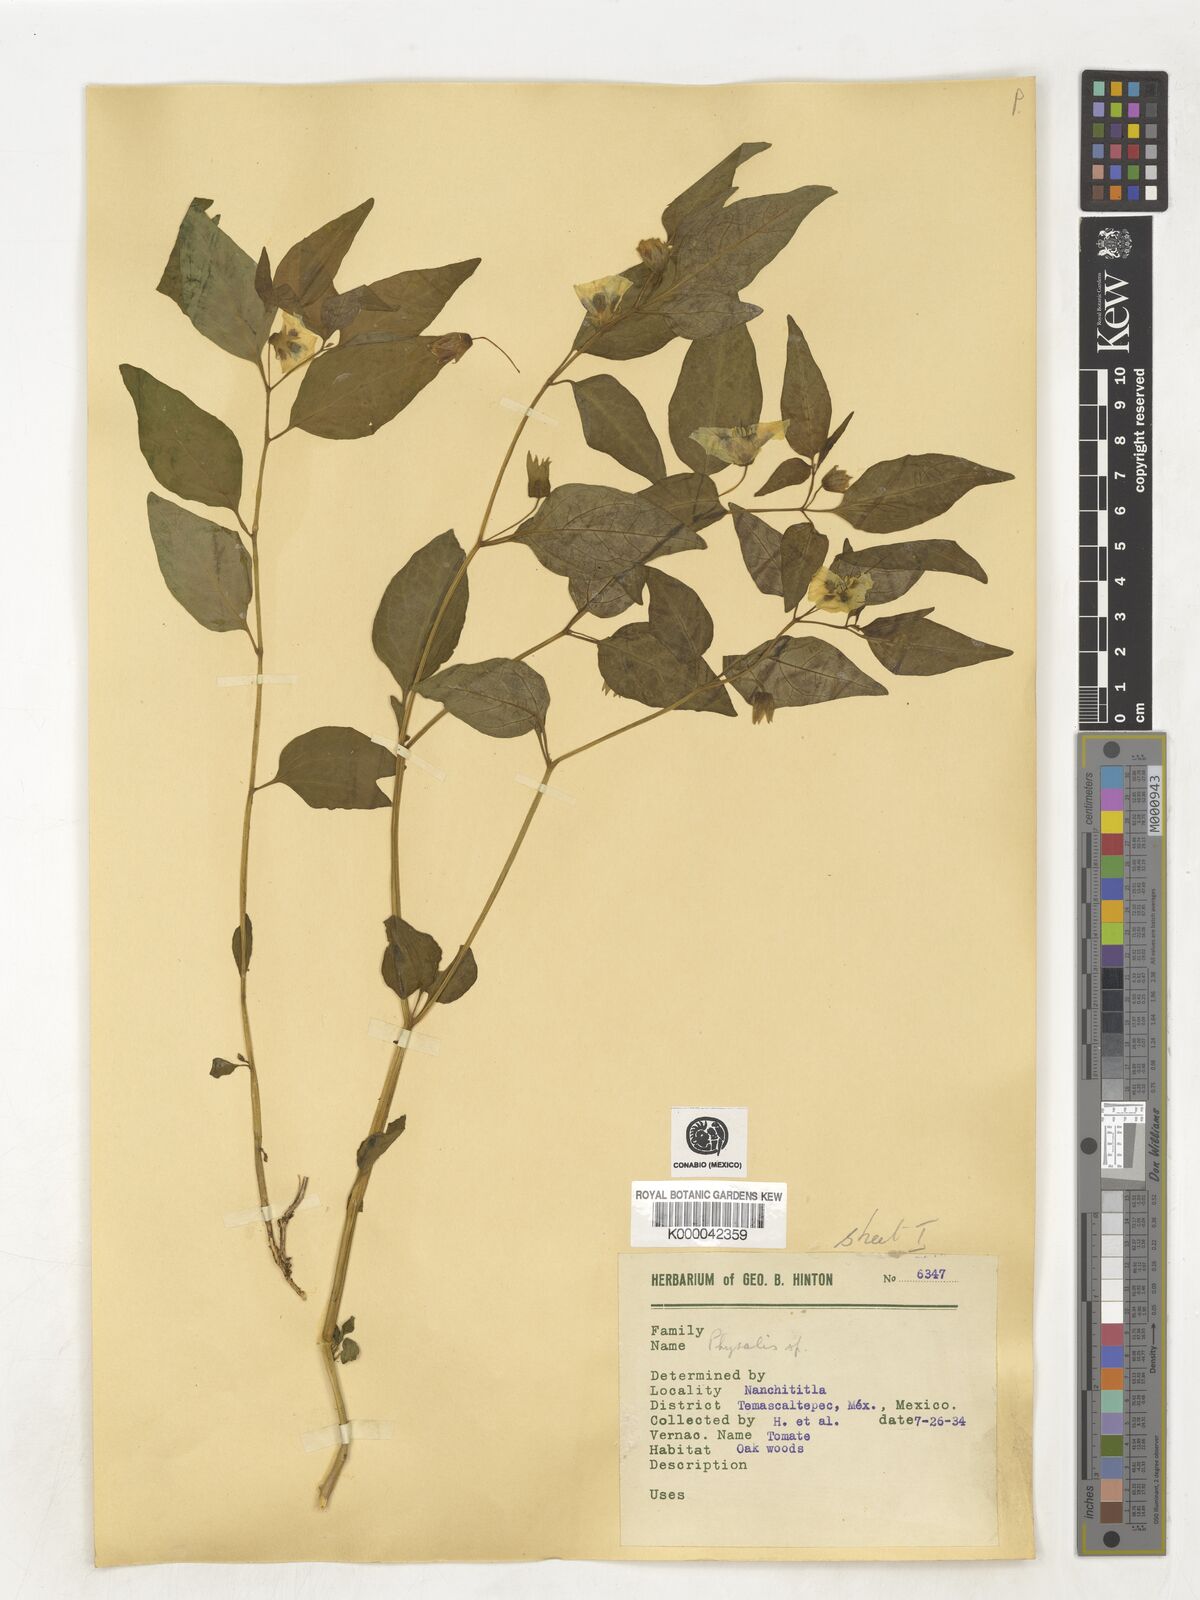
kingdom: Plantae
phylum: Tracheophyta
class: Magnoliopsida
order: Solanales
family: Solanaceae
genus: Physalis
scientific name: Physalis
